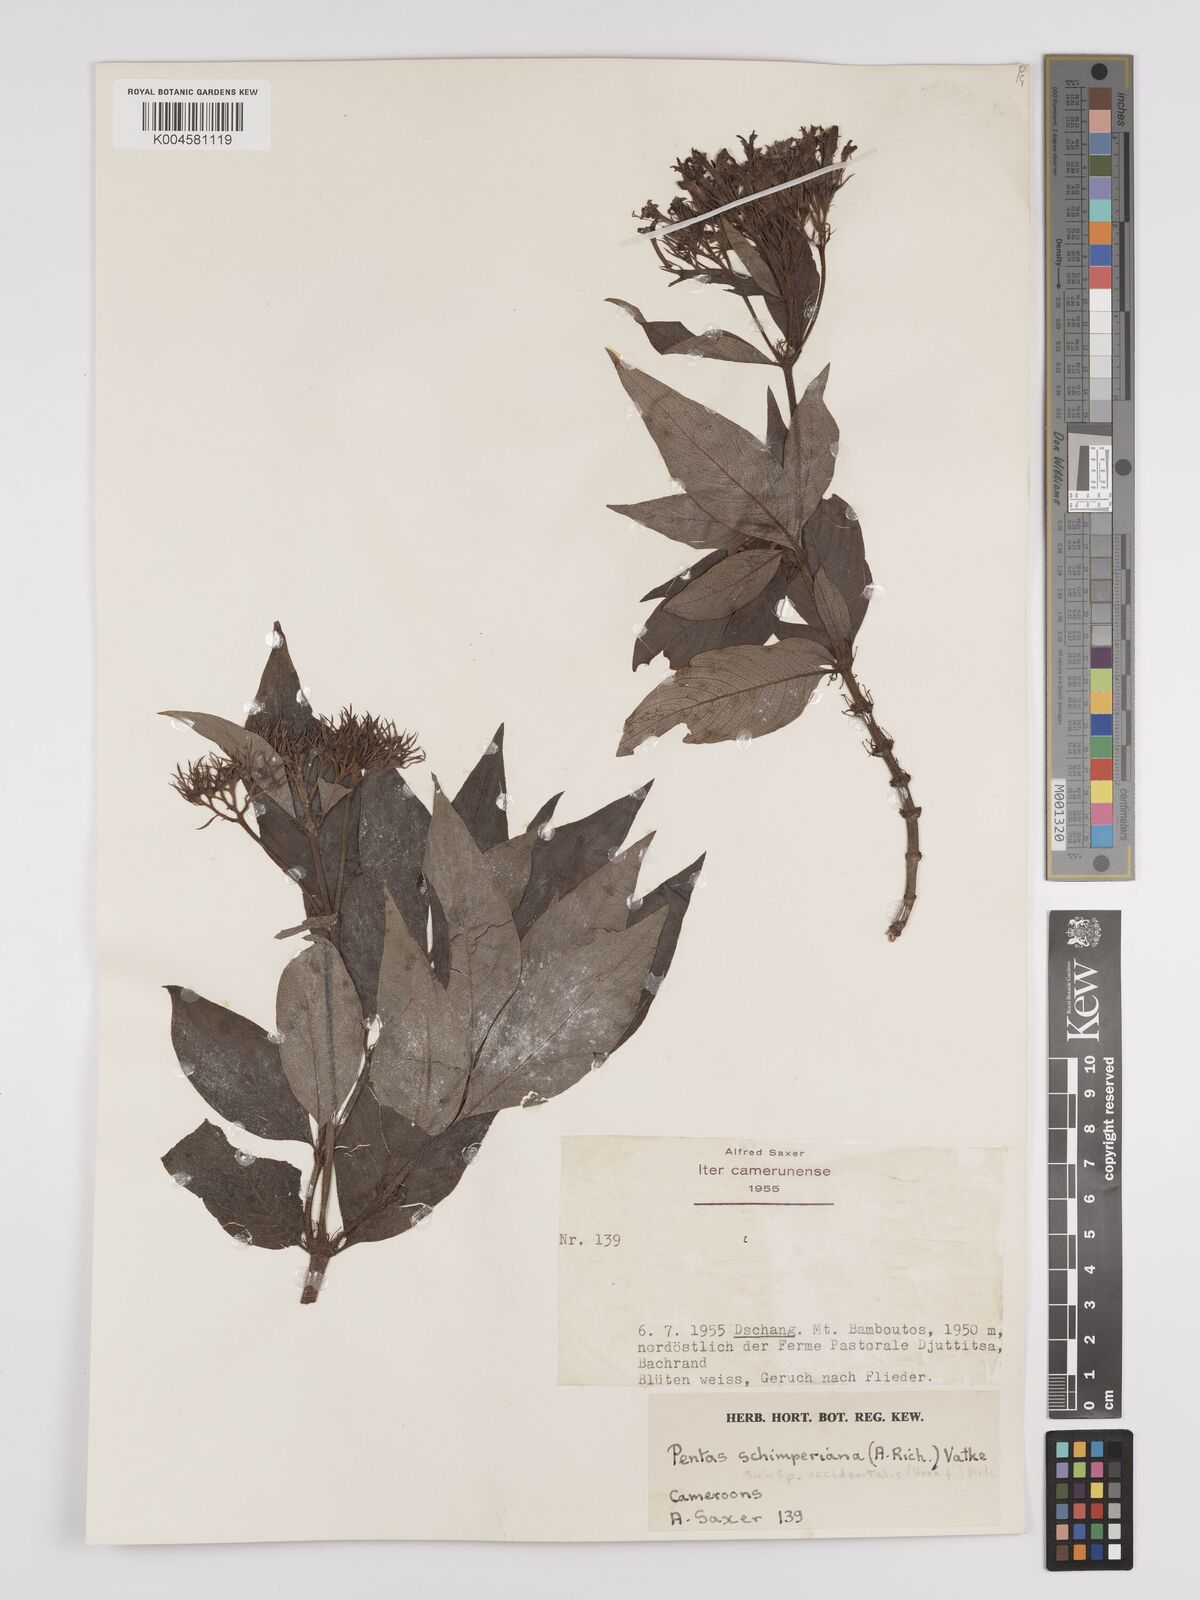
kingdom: Plantae
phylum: Tracheophyta
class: Magnoliopsida
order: Gentianales
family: Rubiaceae
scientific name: Rubiaceae
